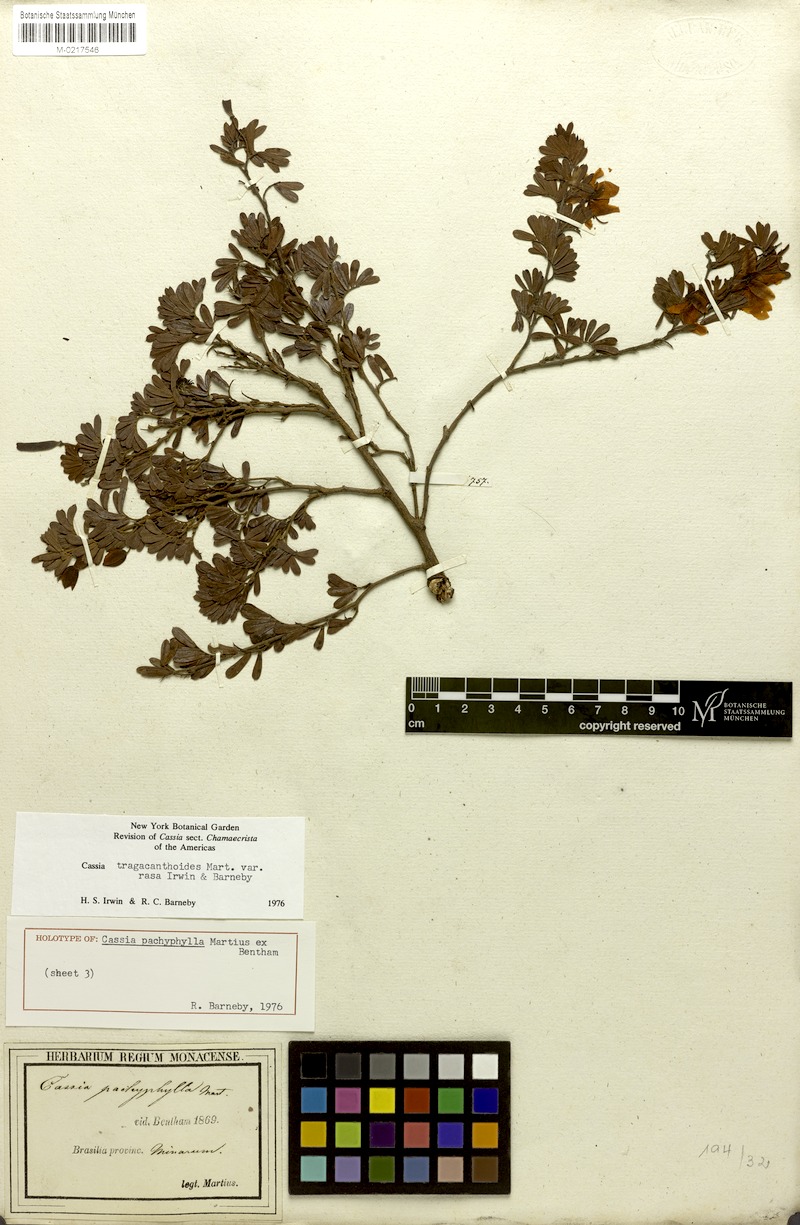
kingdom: Plantae
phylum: Tracheophyta
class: Magnoliopsida
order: Fabales
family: Fabaceae
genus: Chamaecrista
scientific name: Chamaecrista tragacanthoides
